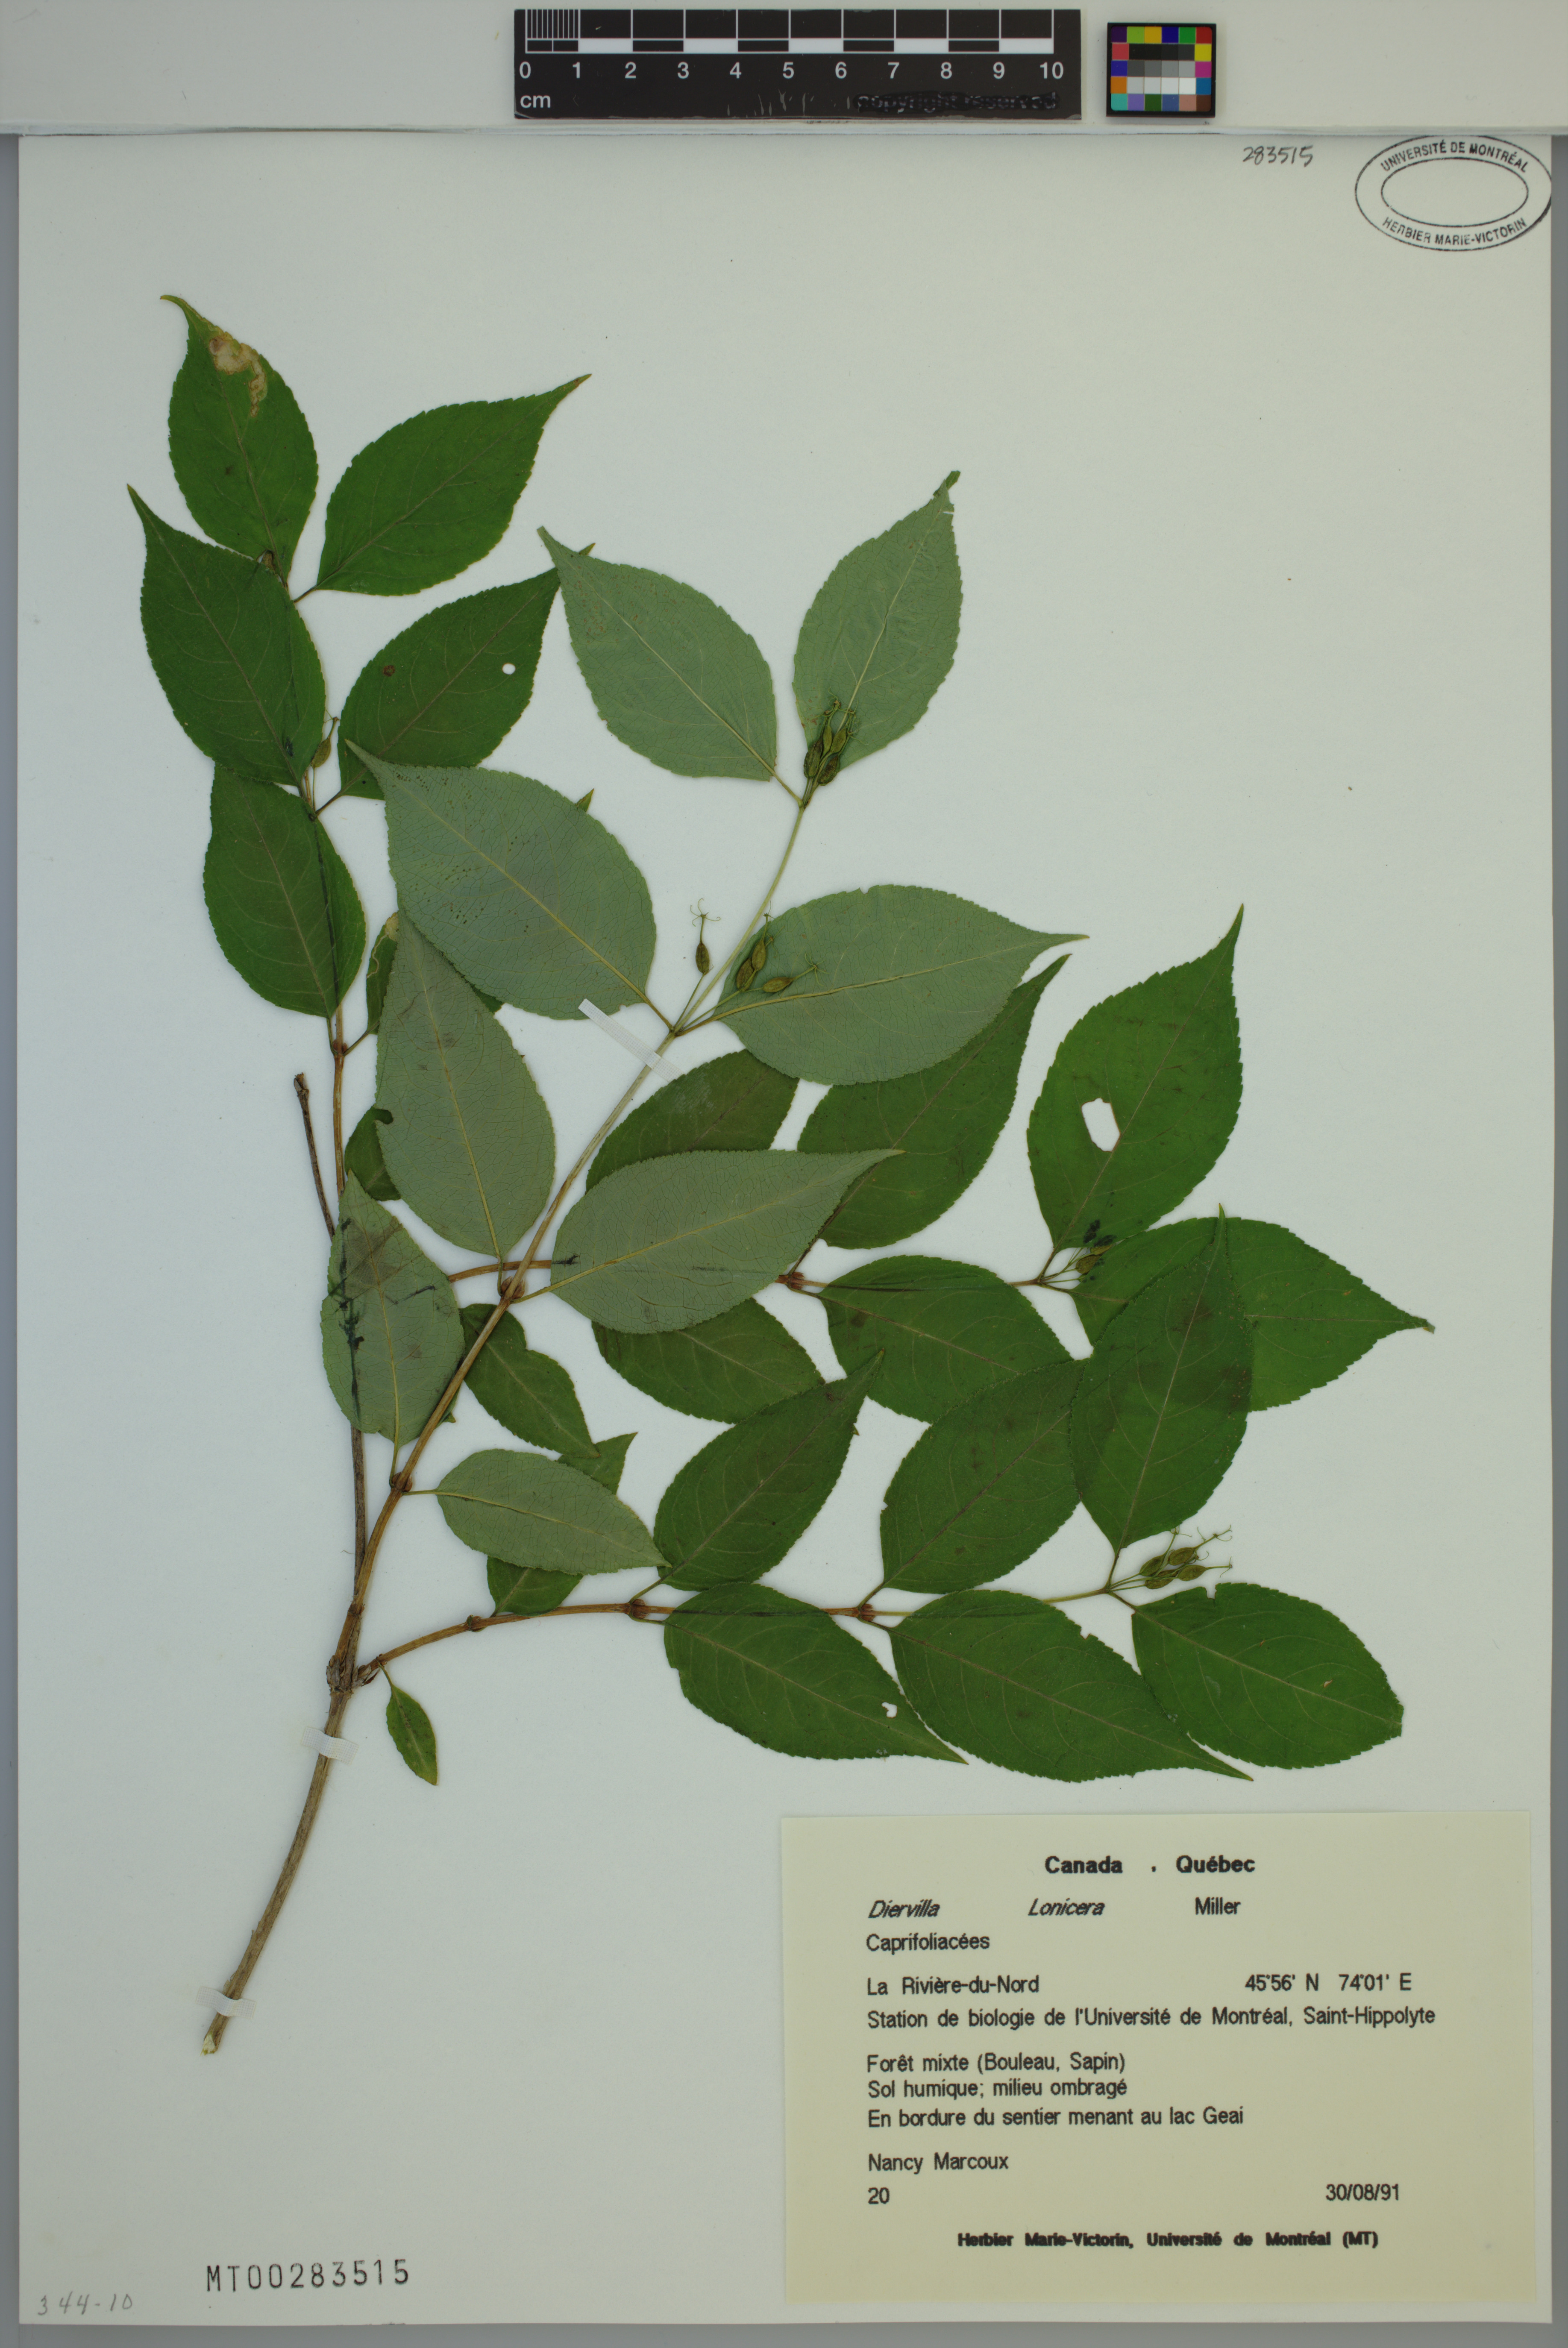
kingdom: Plantae
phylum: Tracheophyta
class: Magnoliopsida
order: Dipsacales
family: Caprifoliaceae
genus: Diervilla
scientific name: Diervilla lonicera
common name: Bush-honeysuckle
